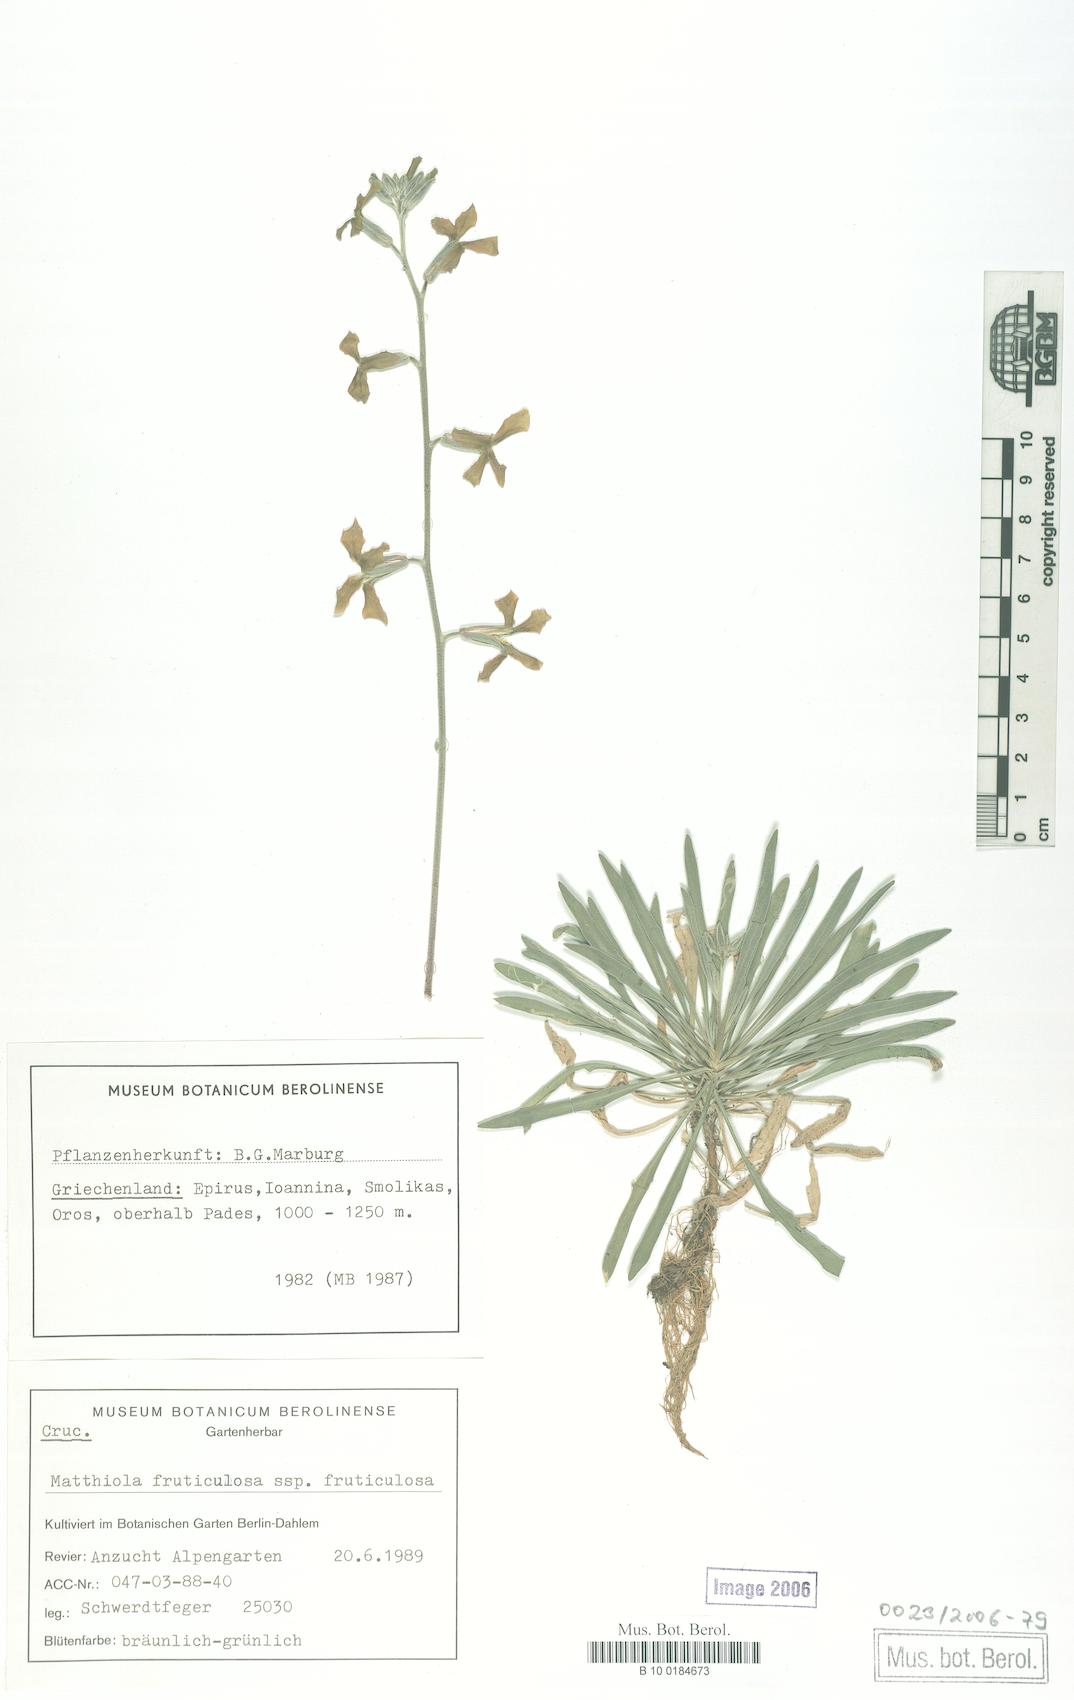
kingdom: Plantae
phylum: Tracheophyta
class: Magnoliopsida
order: Brassicales
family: Brassicaceae
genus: Matthiola
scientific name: Matthiola fruticulosa
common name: Sad stock
